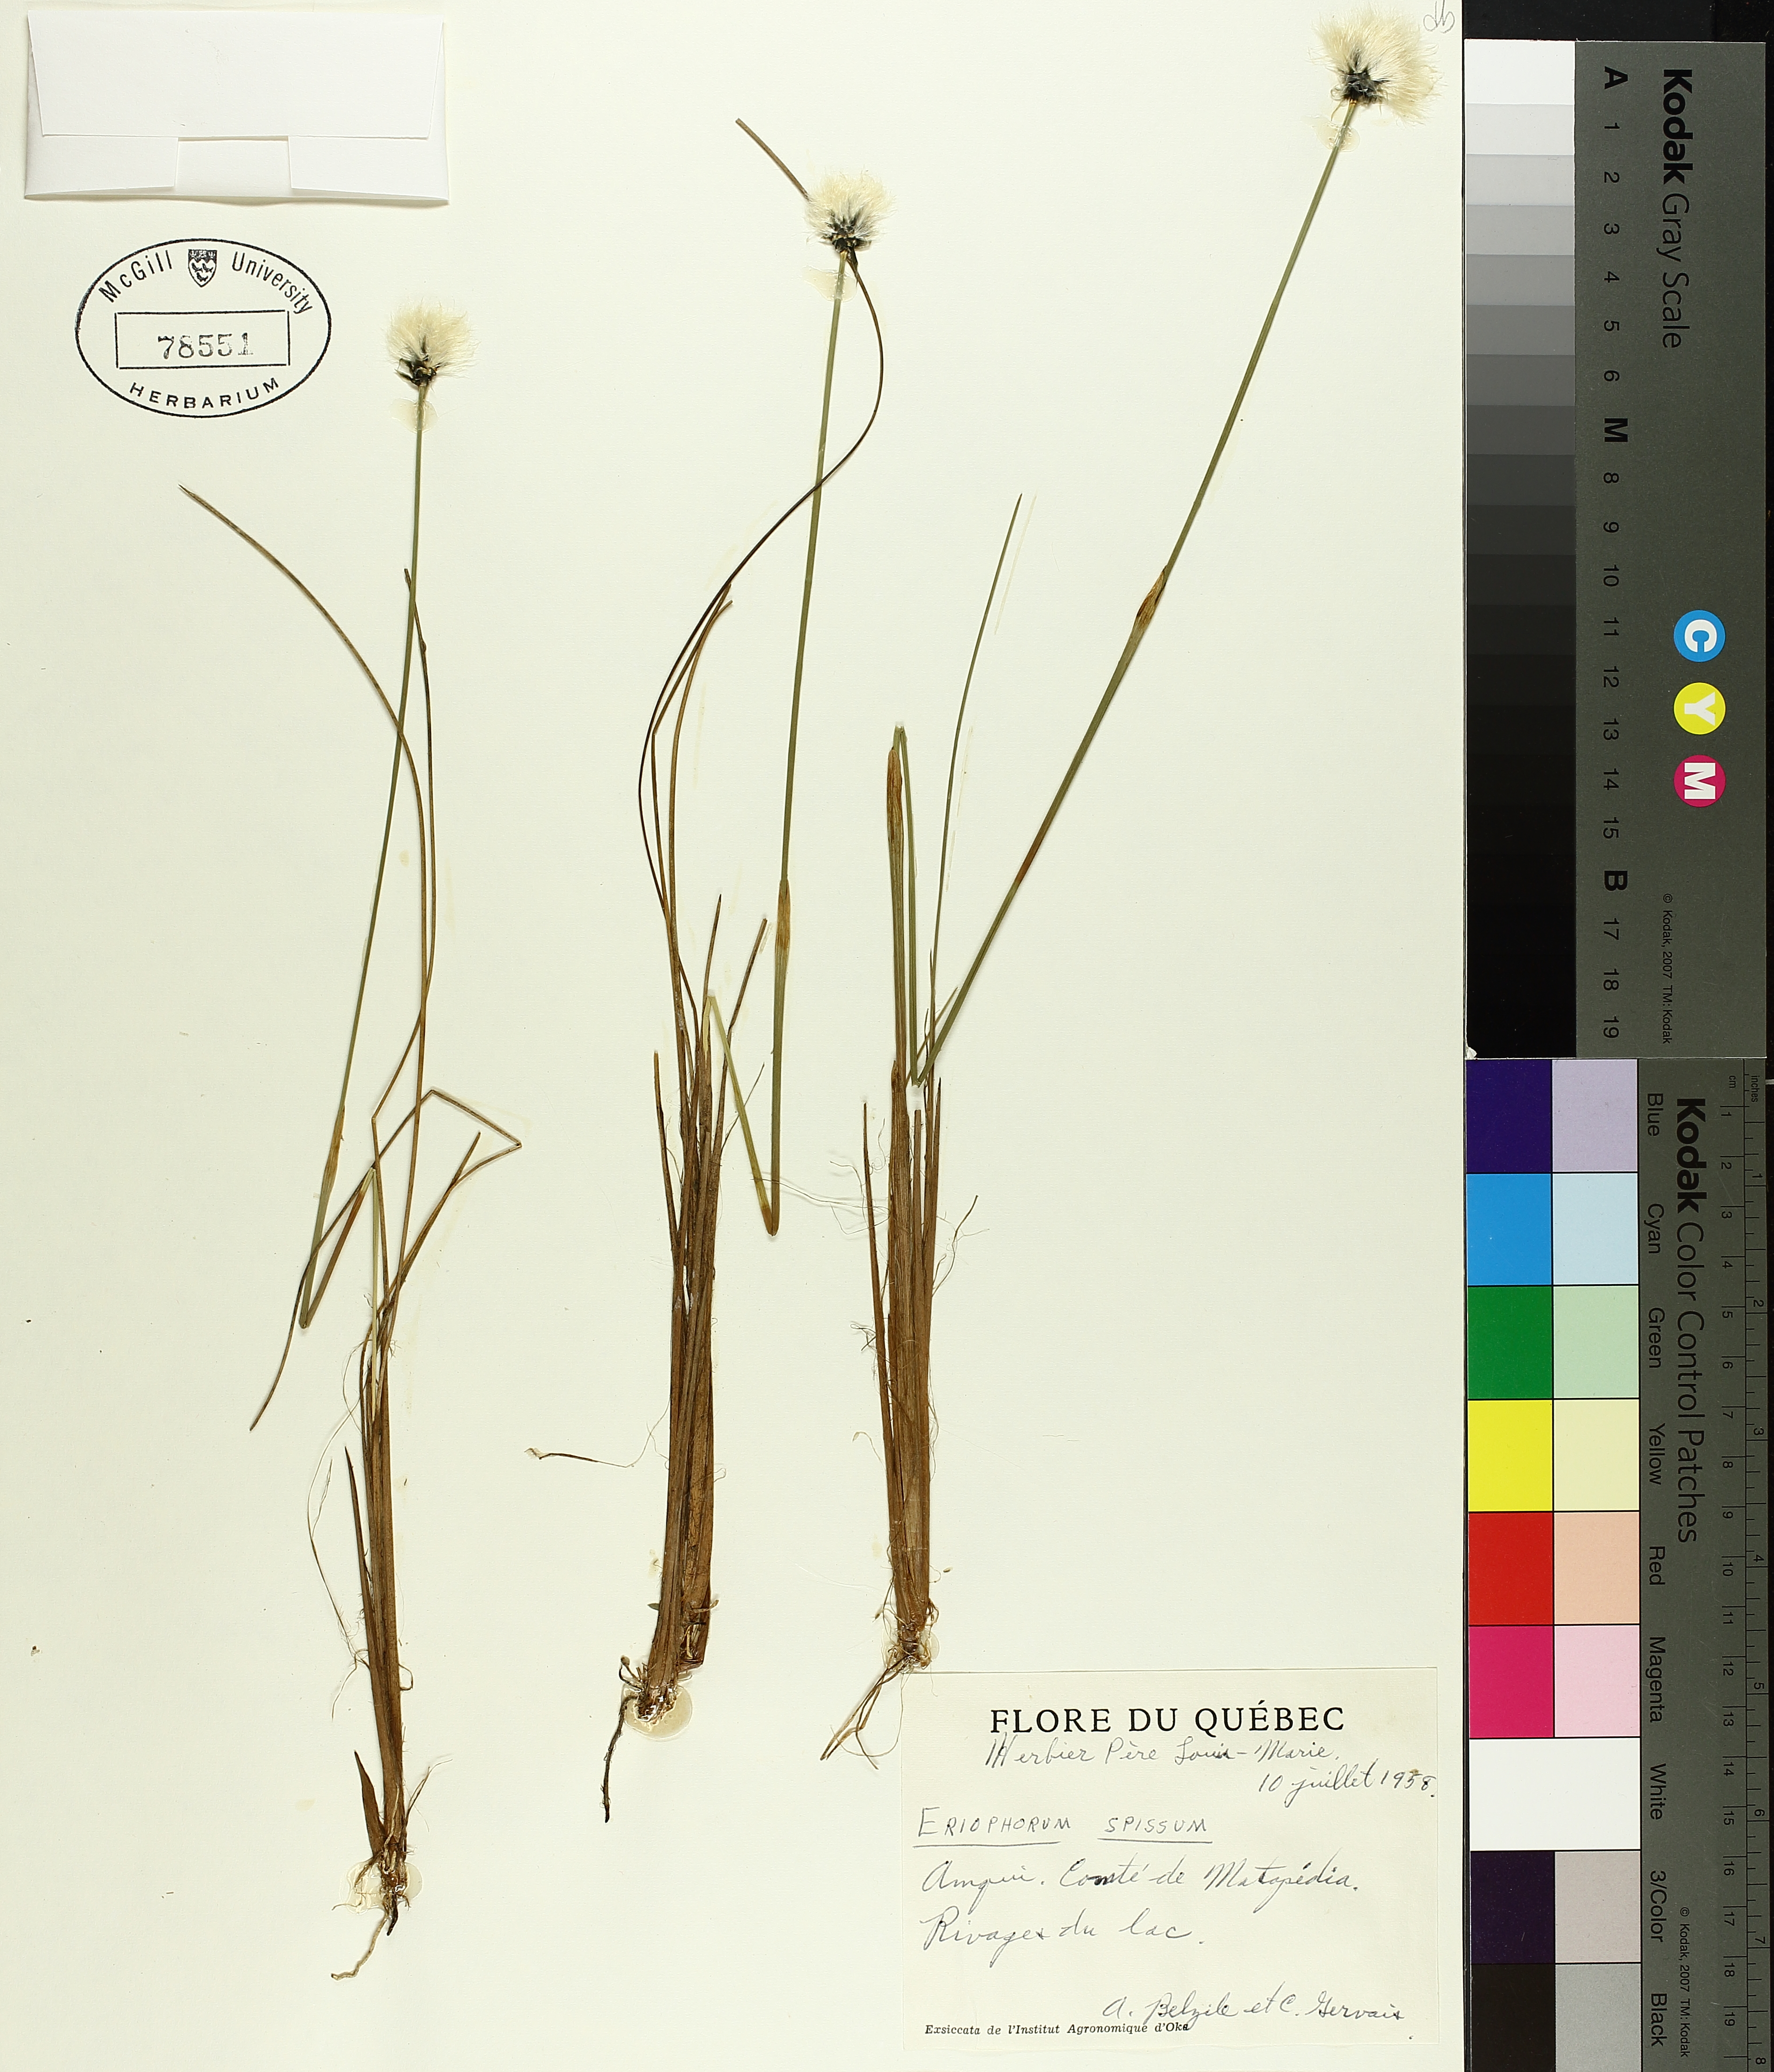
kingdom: Plantae
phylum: Tracheophyta
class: Liliopsida
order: Poales
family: Cyperaceae
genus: Eriophorum
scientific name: Eriophorum vaginatum
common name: Hare's-tail cottongrass
